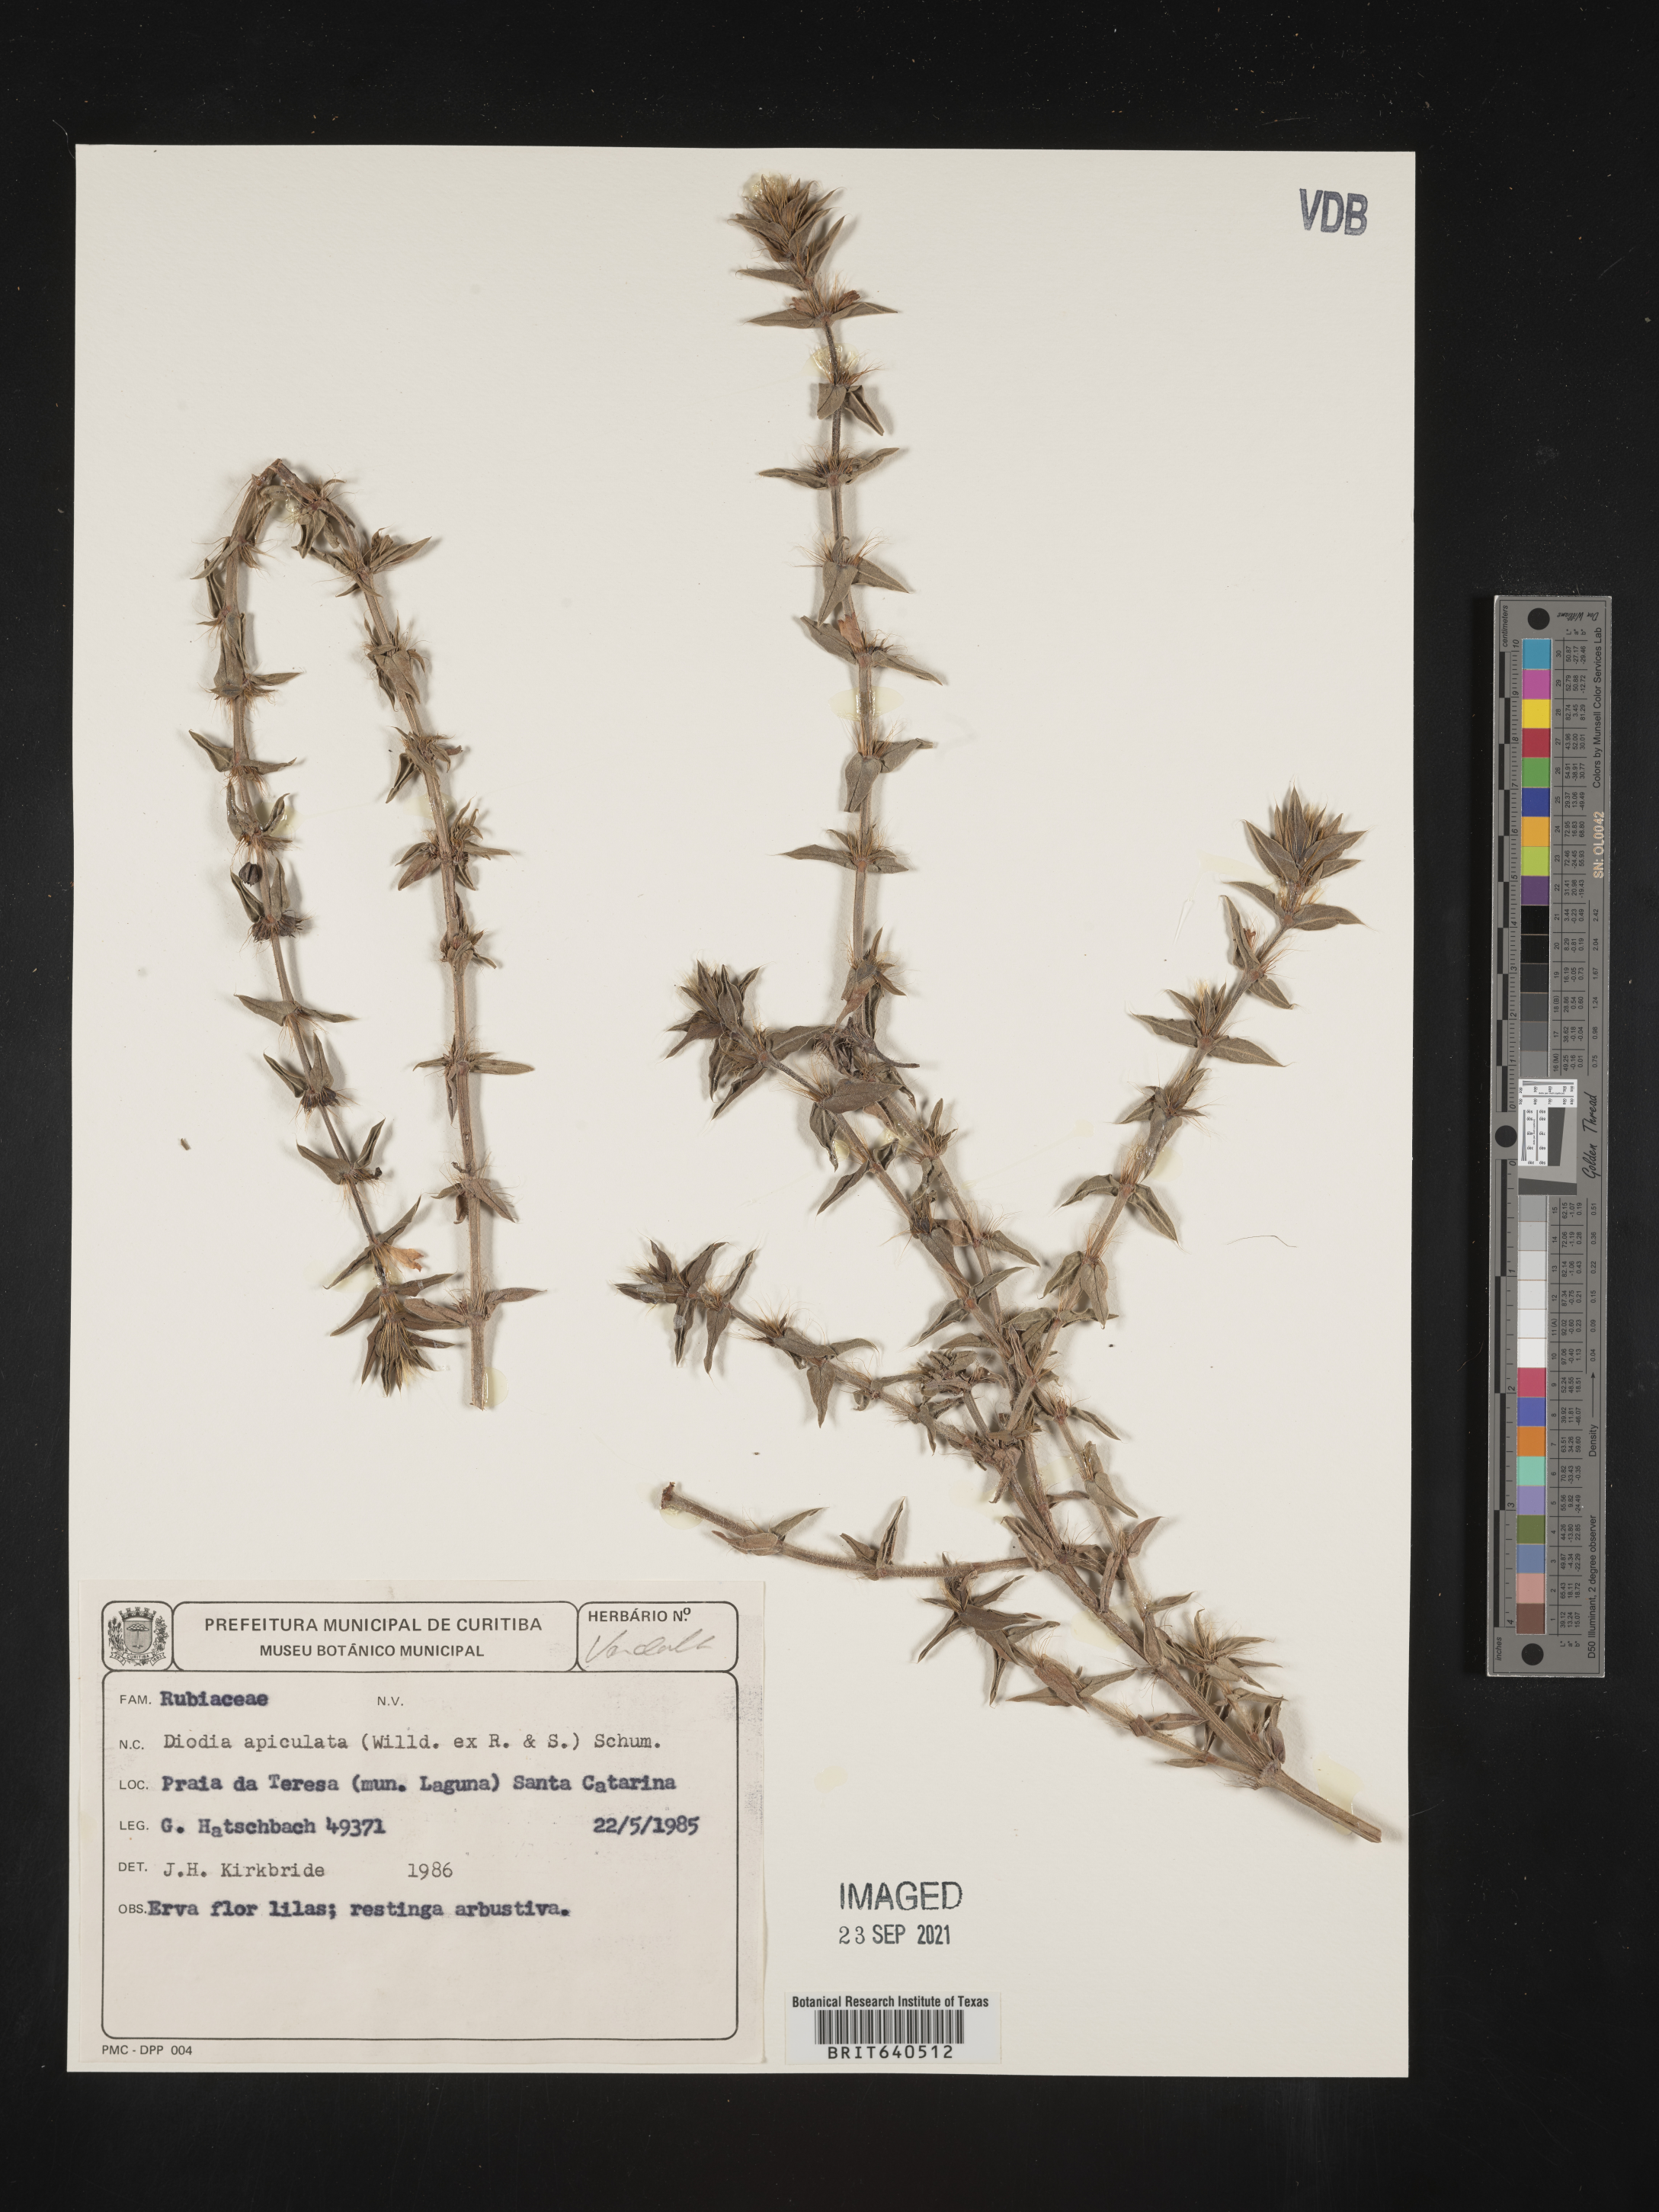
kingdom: Plantae
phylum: Tracheophyta
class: Magnoliopsida
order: Gentianales
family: Rubiaceae
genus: Diodia
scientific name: Diodia
